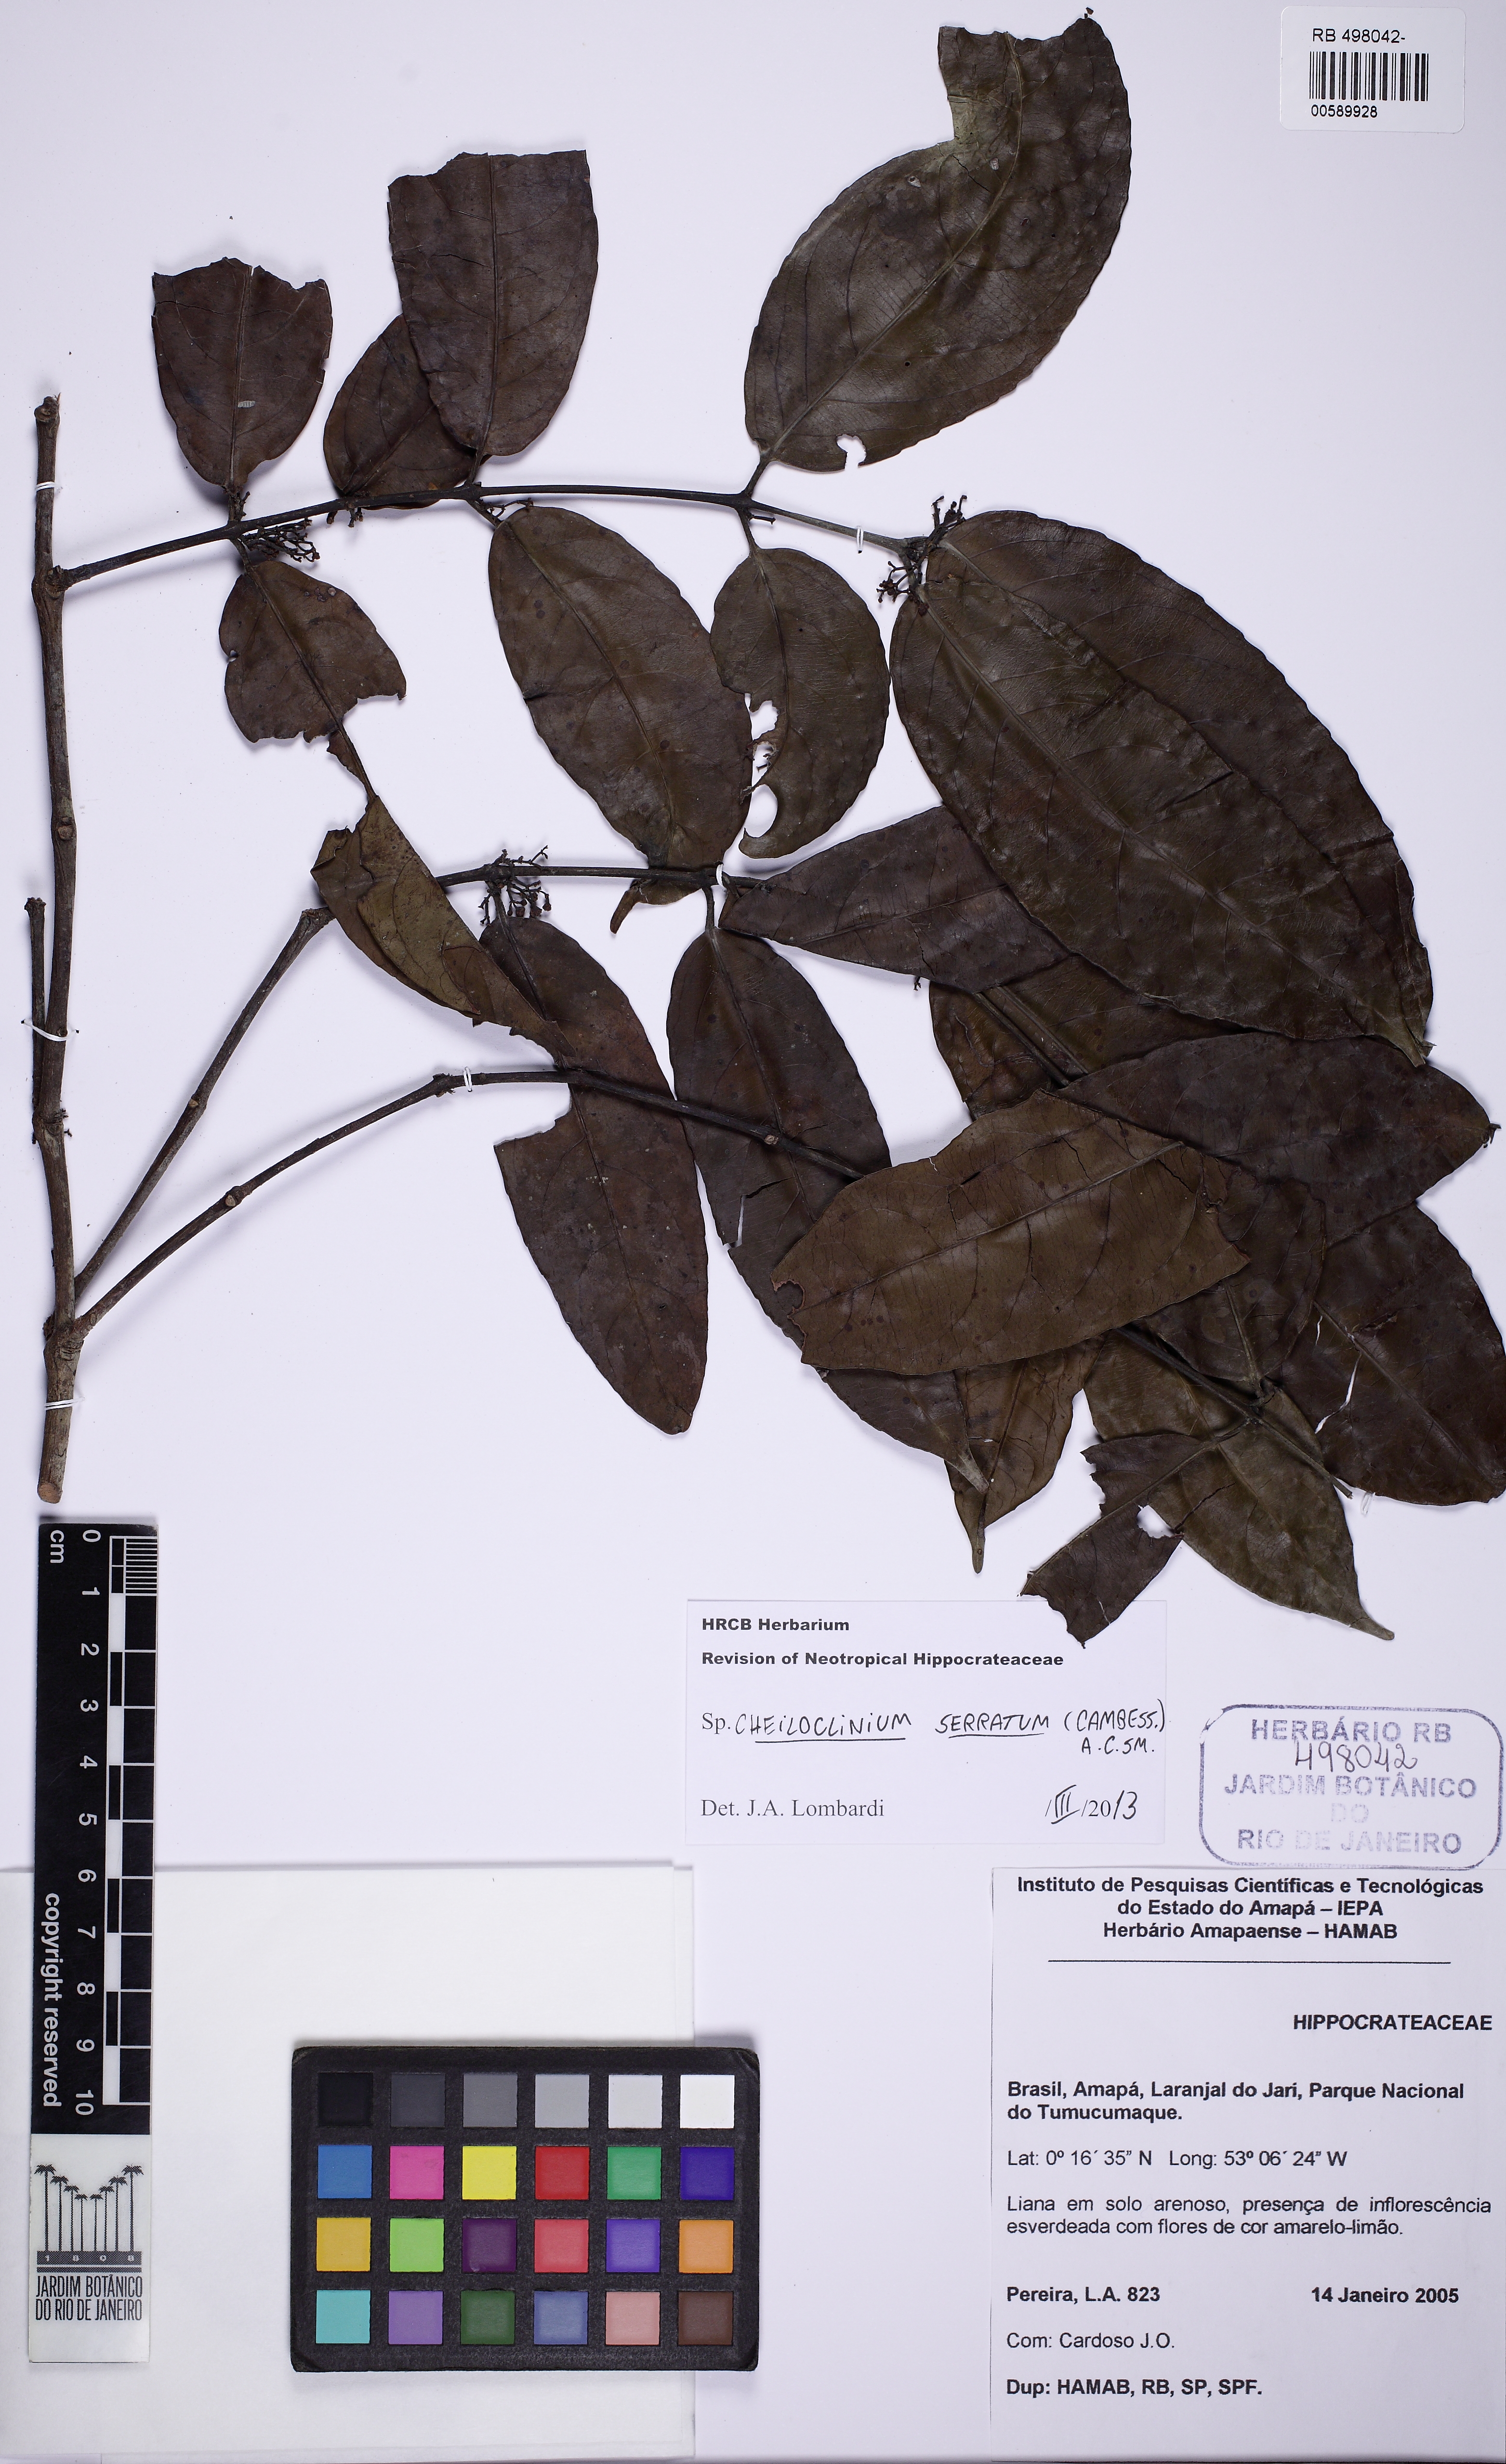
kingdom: Plantae
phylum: Tracheophyta
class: Magnoliopsida
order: Celastrales
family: Celastraceae
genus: Cheiloclinium
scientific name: Cheiloclinium serratum
